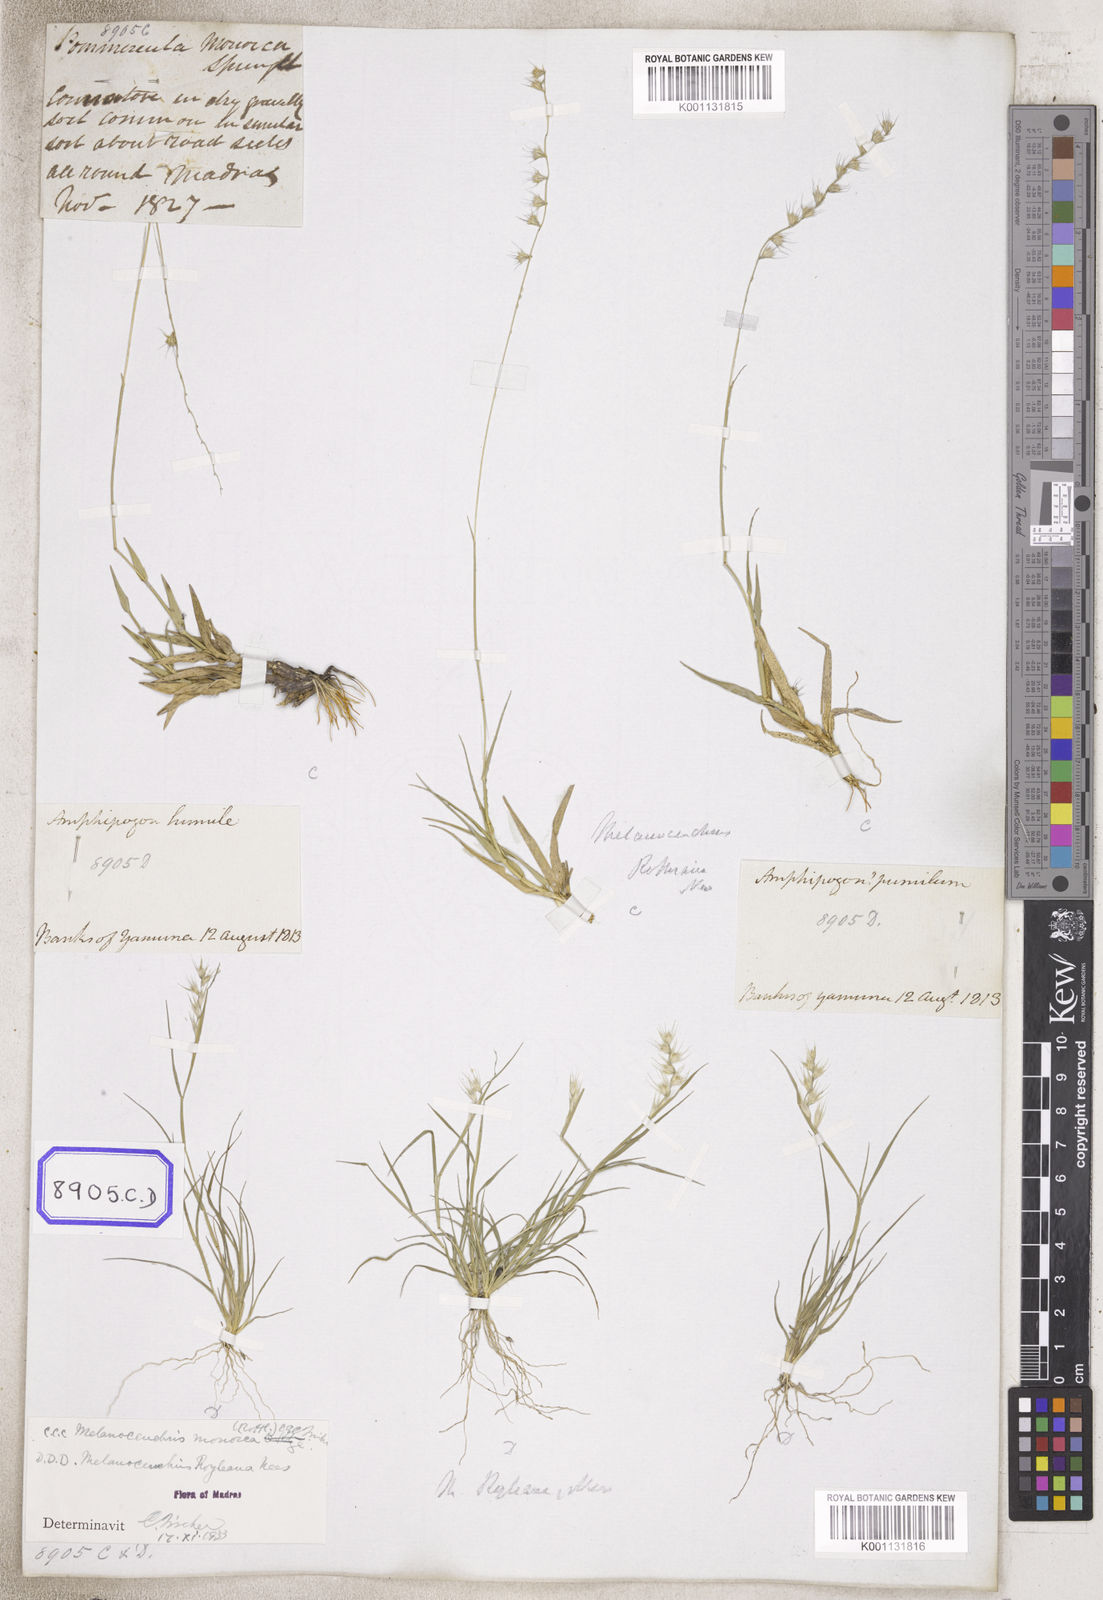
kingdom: Plantae
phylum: Tracheophyta
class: Liliopsida
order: Poales
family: Poaceae
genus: Melanocenchris
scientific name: Melanocenchris rothiana
